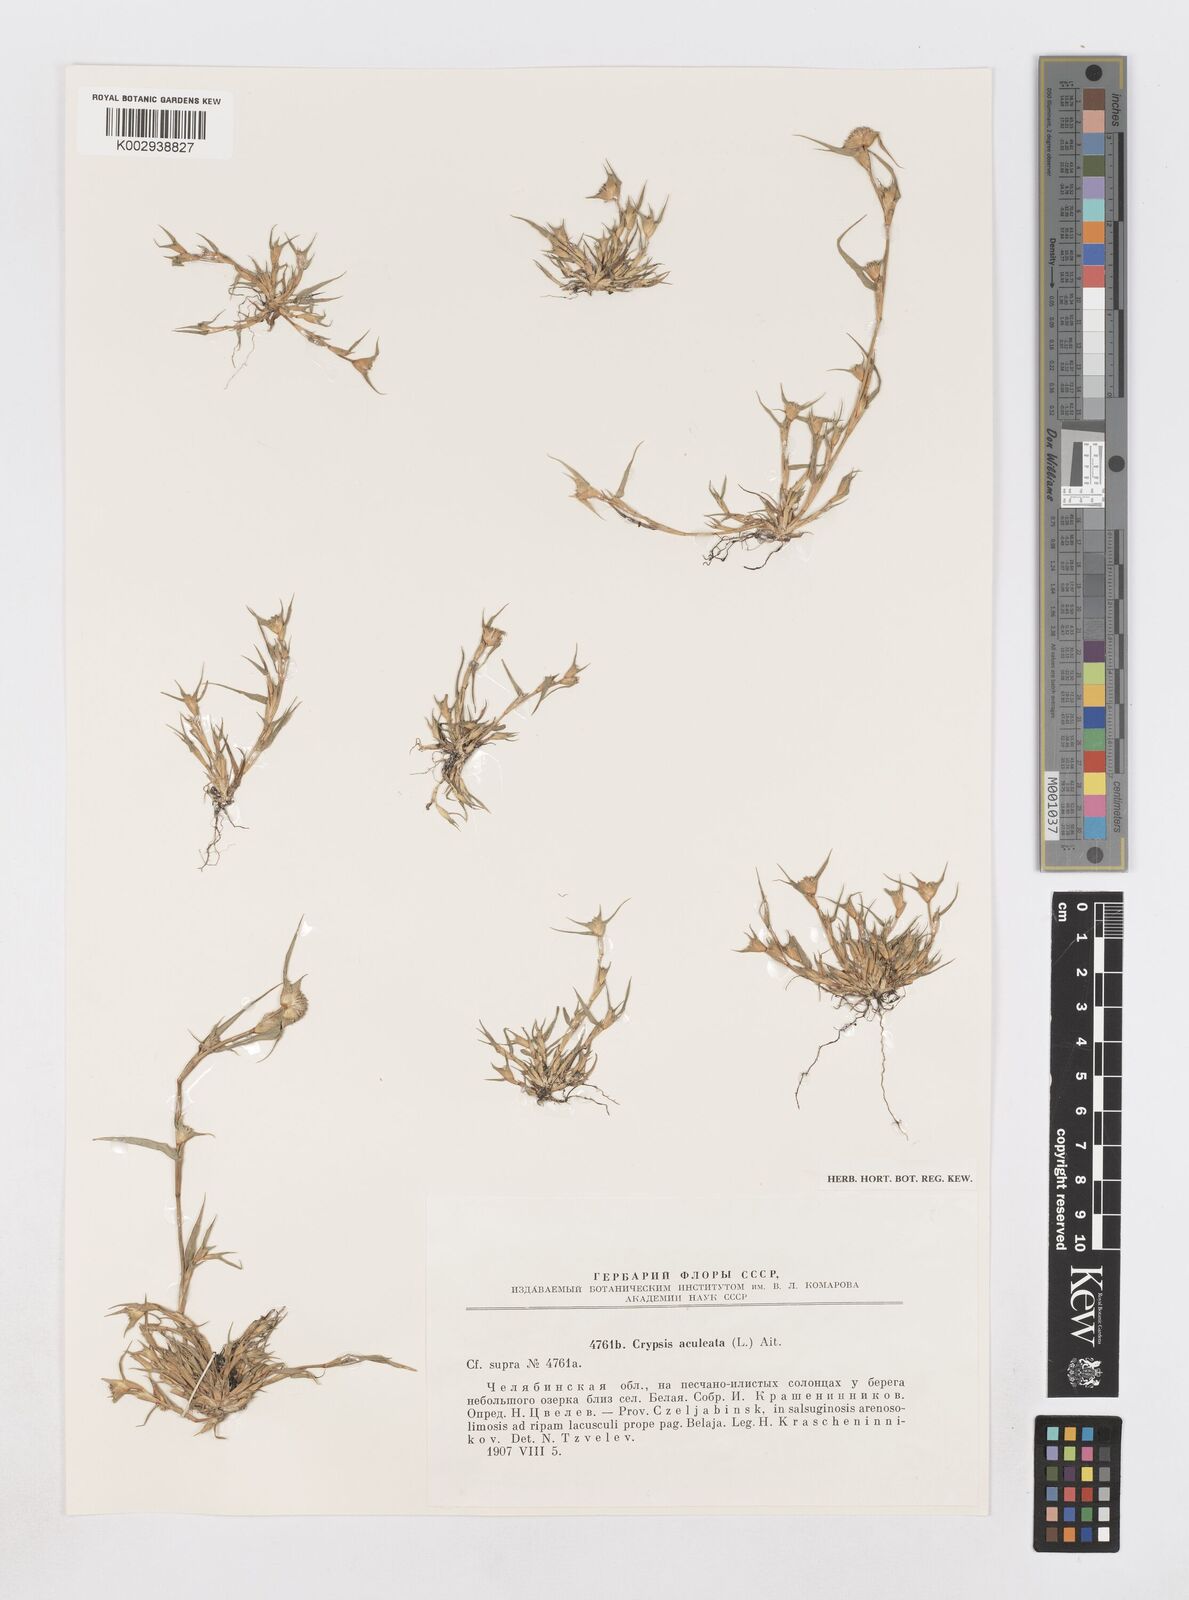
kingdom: Plantae
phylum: Tracheophyta
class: Liliopsida
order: Poales
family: Poaceae
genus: Sporobolus
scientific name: Sporobolus aculeatus
